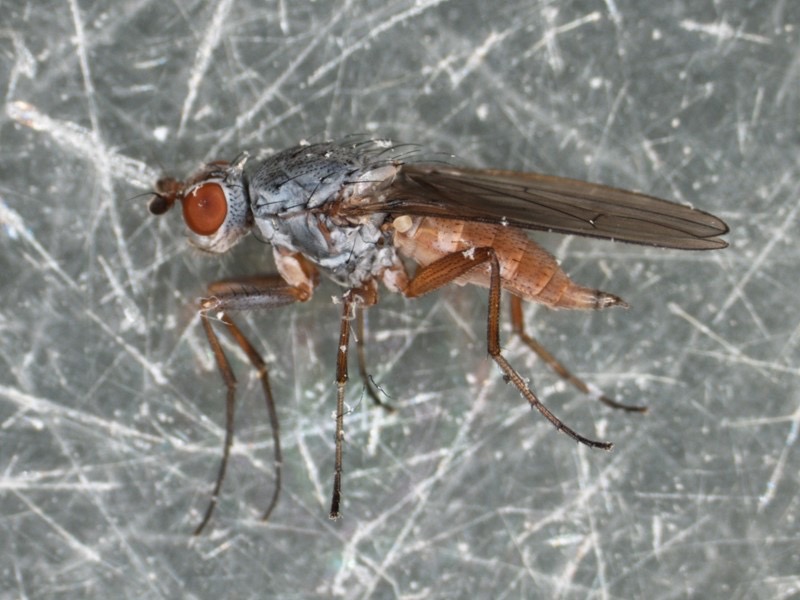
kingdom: Animalia
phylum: Arthropoda
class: Insecta
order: Diptera
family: Heleomyzidae
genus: Tephrochlamys
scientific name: Tephrochlamys rufiventris
